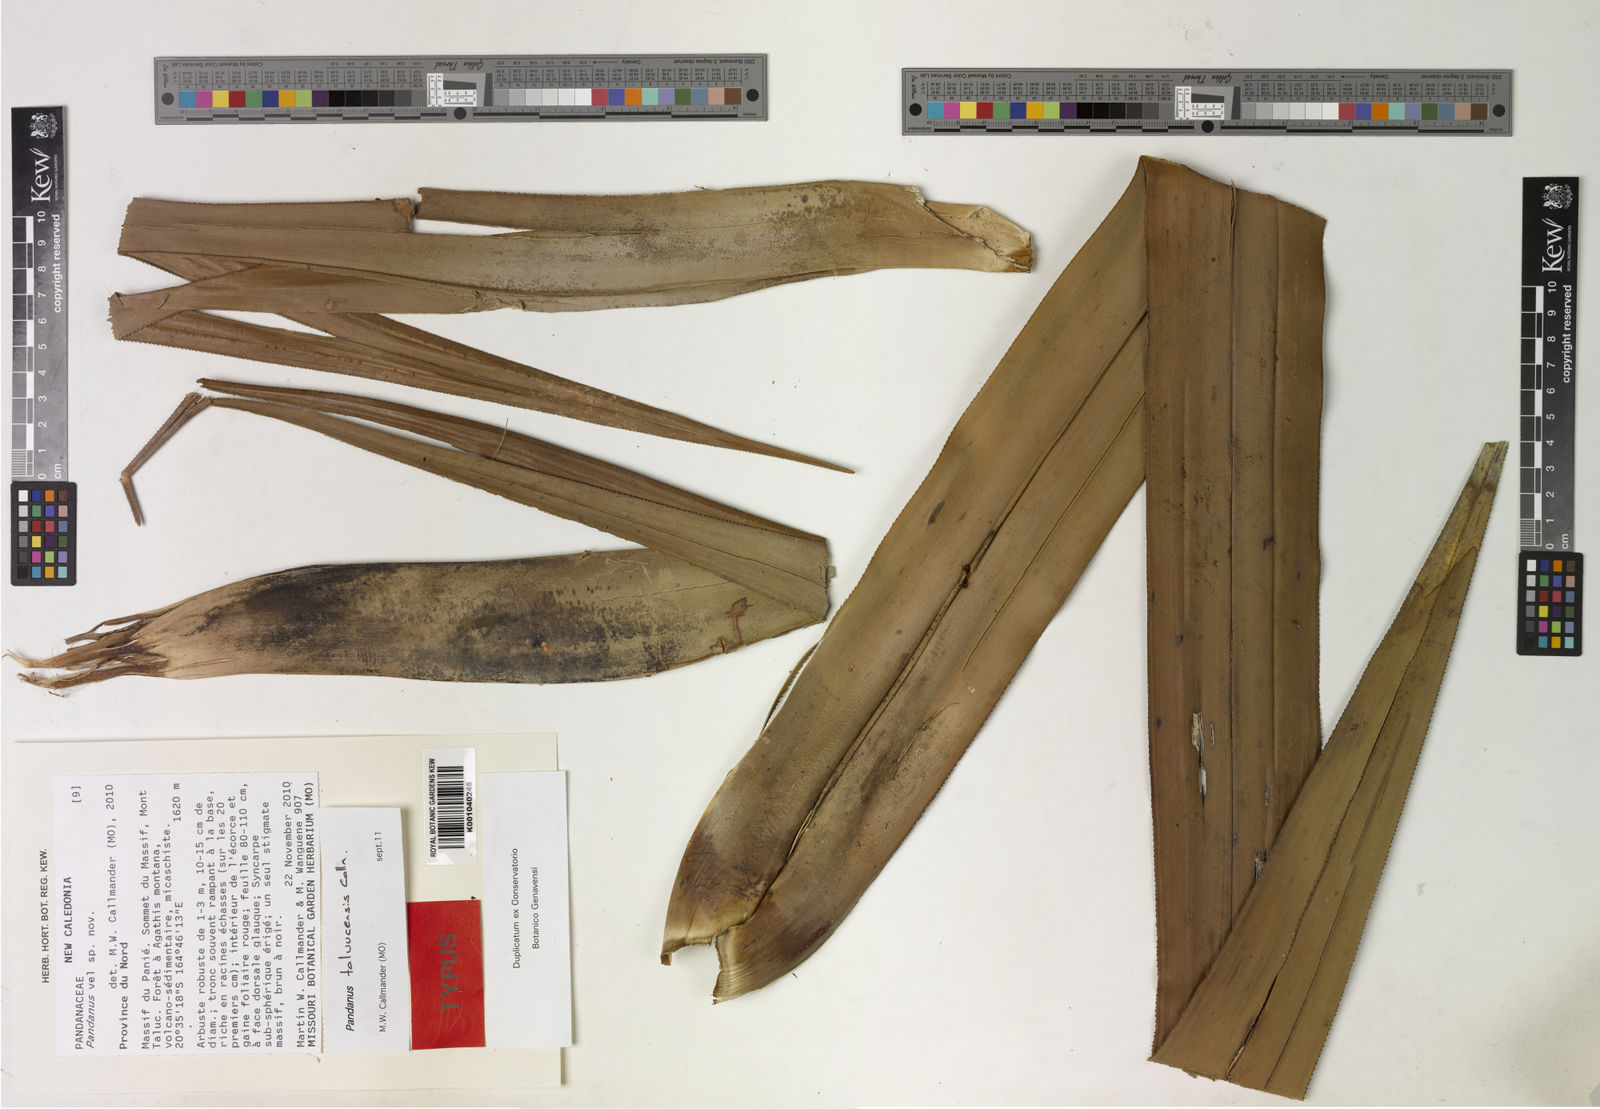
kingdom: Plantae
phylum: Tracheophyta
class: Liliopsida
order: Pandanales
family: Pandanaceae
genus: Pandanus
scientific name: Pandanus taluucensis
